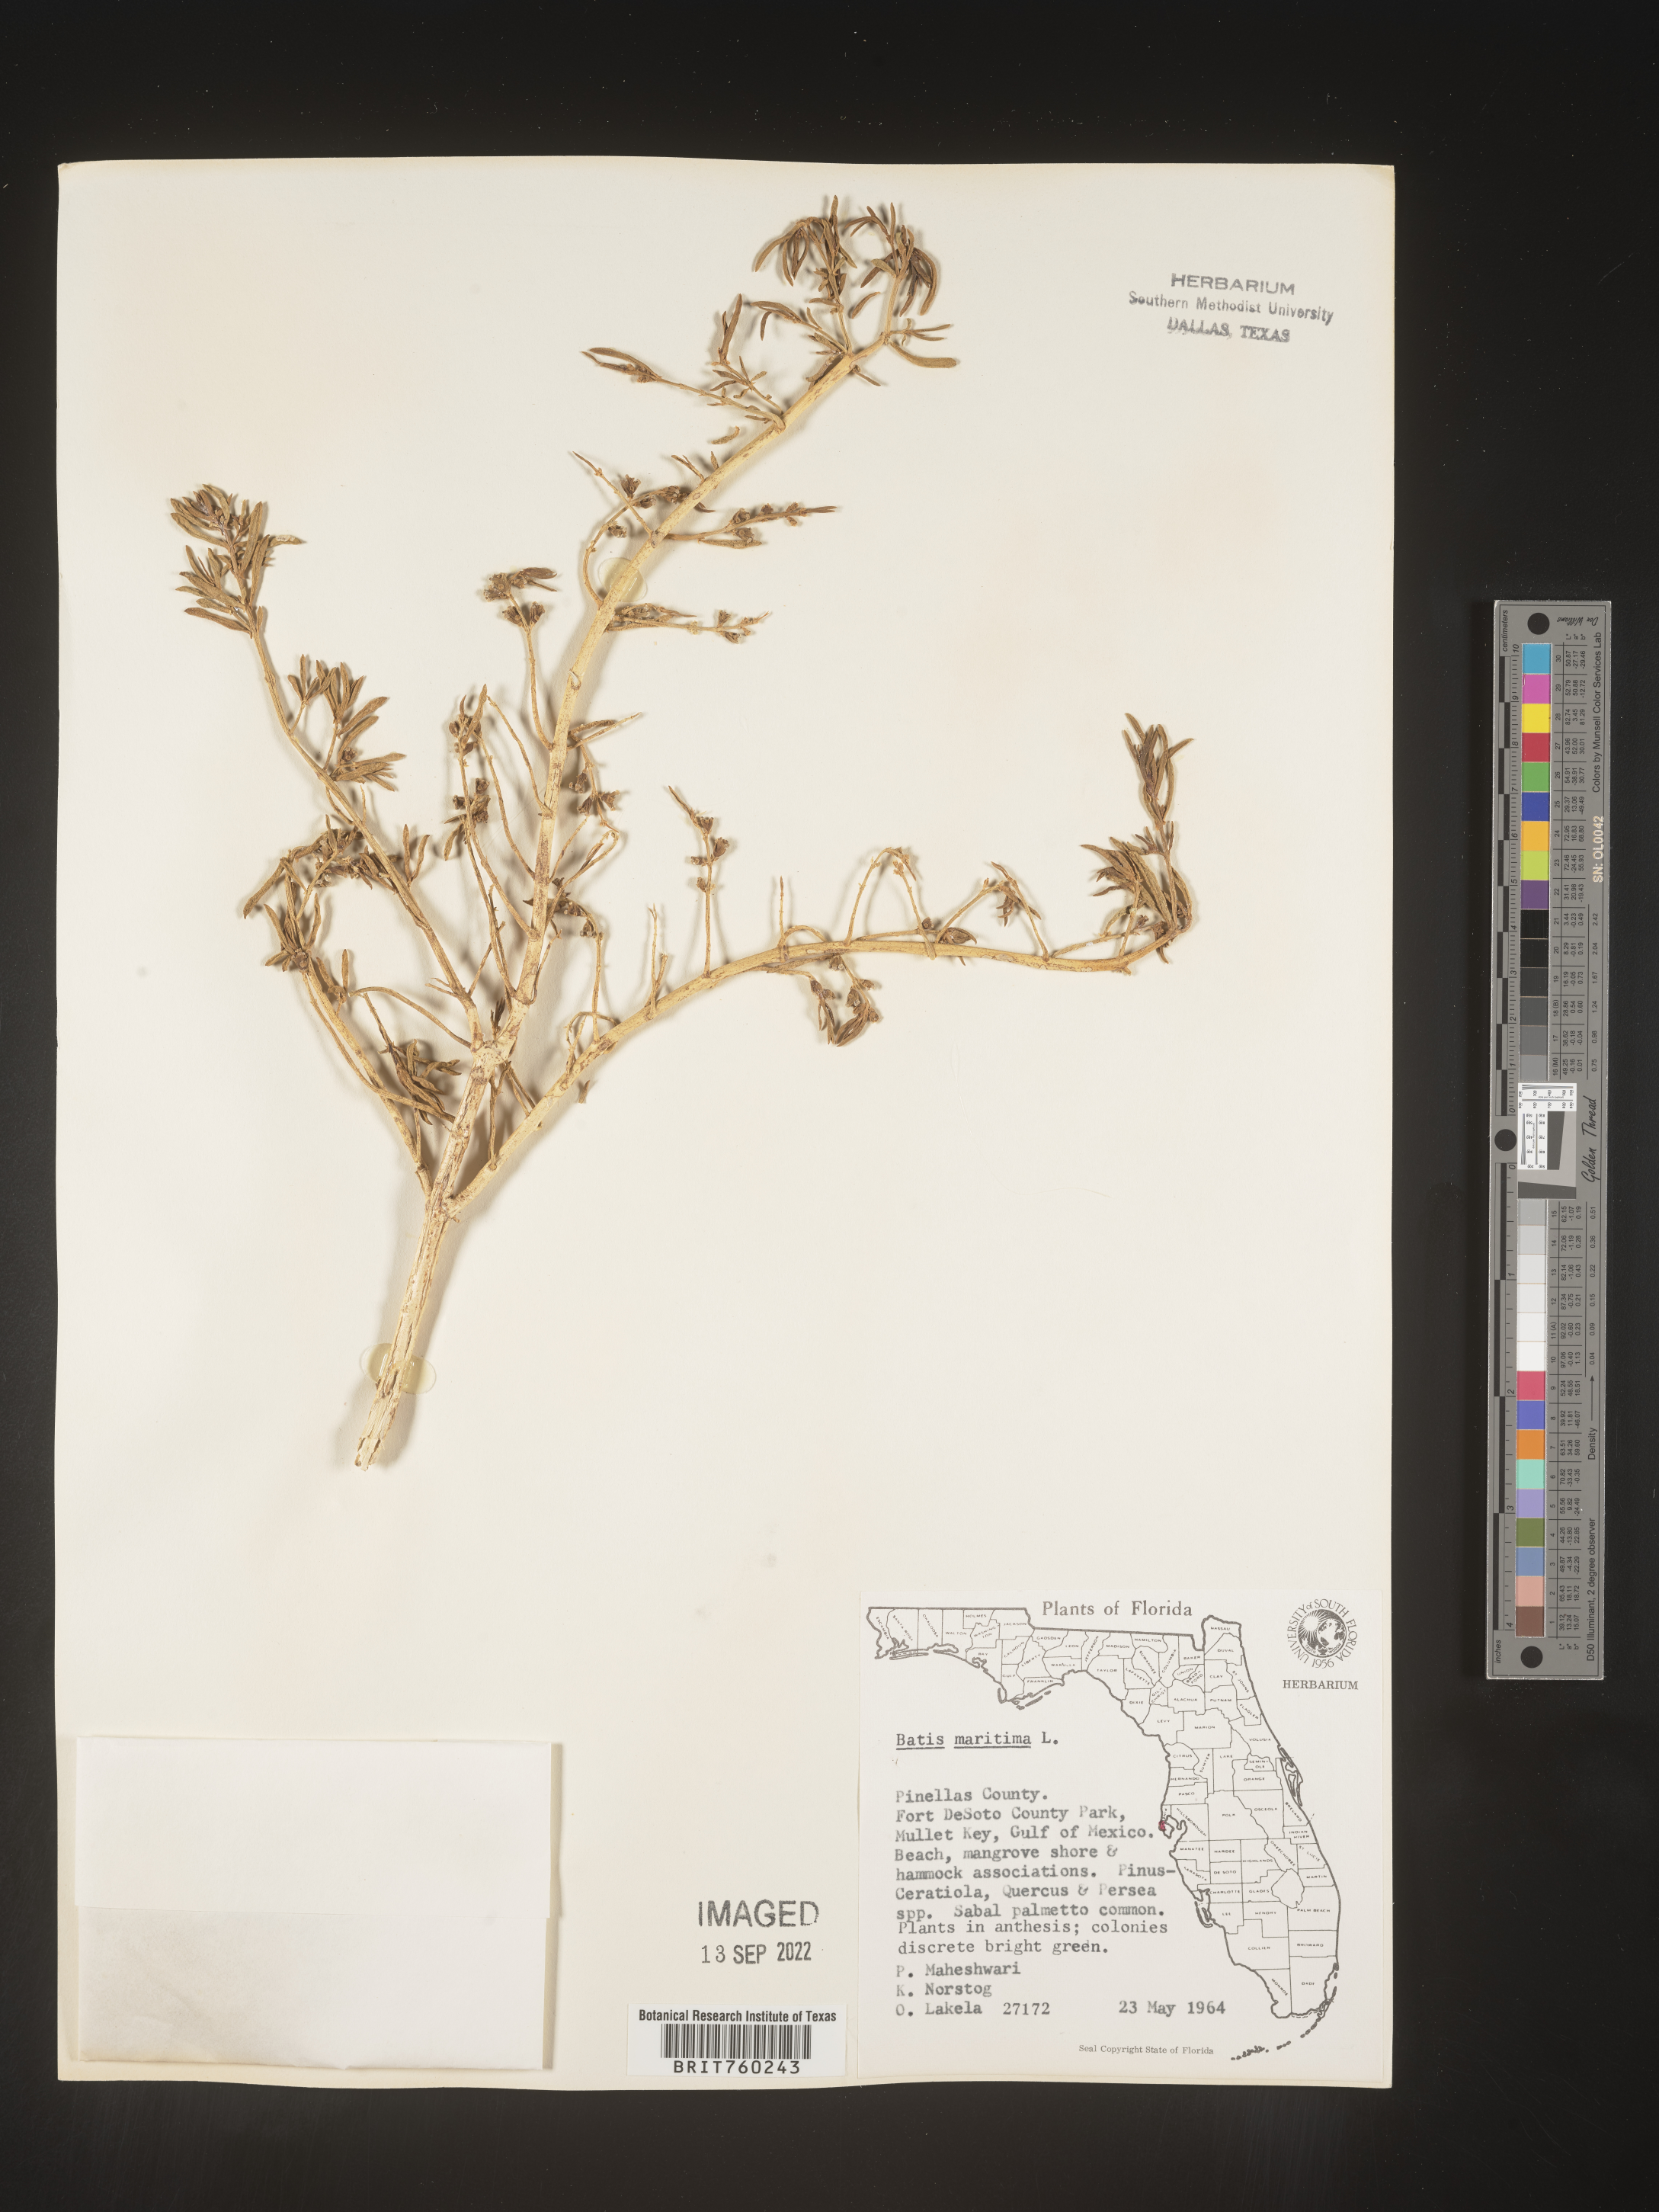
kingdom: Plantae
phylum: Tracheophyta
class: Magnoliopsida
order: Brassicales
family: Bataceae
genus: Batis
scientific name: Batis maritima
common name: Turtleweed
